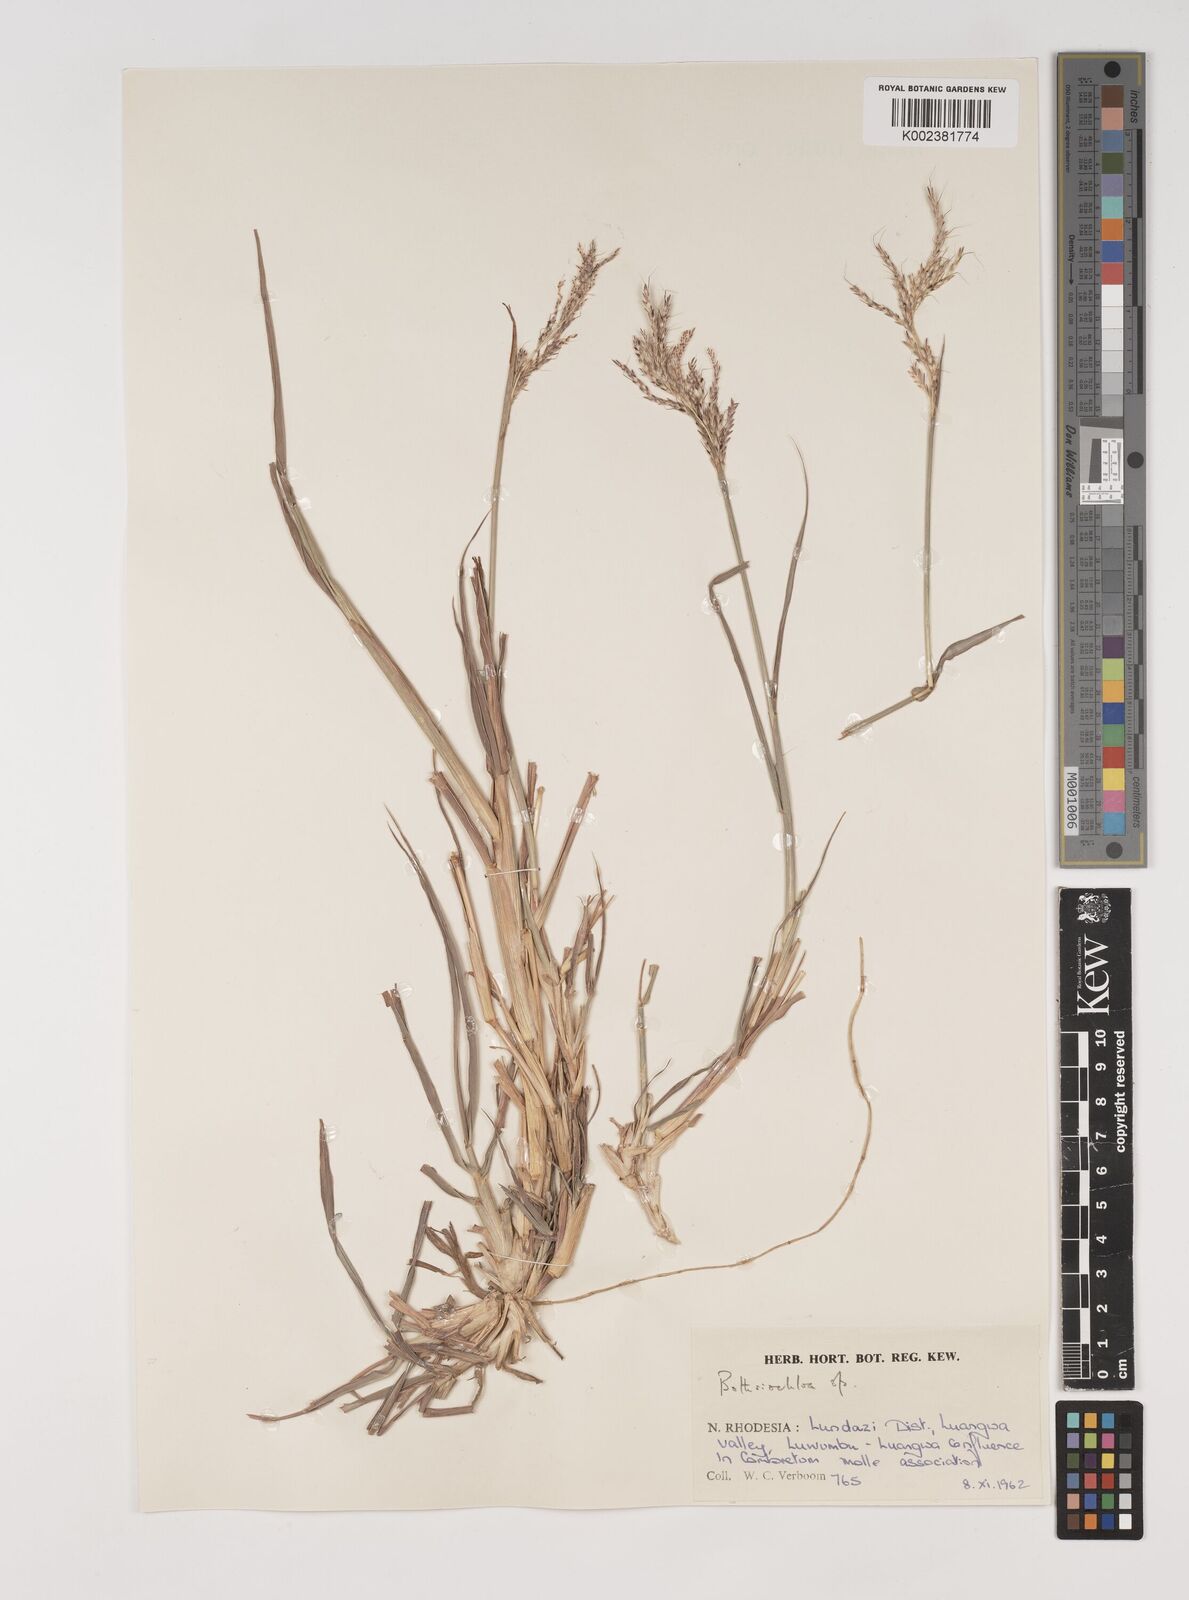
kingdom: Plantae
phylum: Tracheophyta
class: Liliopsida
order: Poales
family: Poaceae
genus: Bothriochloa
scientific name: Bothriochloa bladhii
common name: Caucasian bluestem
